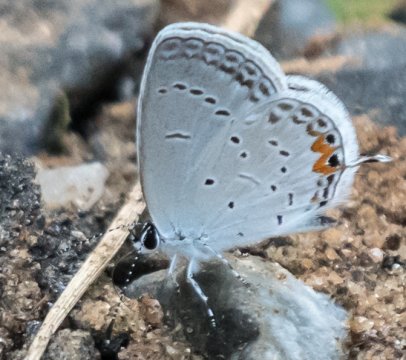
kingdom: Animalia
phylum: Arthropoda
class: Insecta
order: Lepidoptera
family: Lycaenidae
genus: Elkalyce
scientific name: Elkalyce comyntas
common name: Eastern Tailed-Blue
